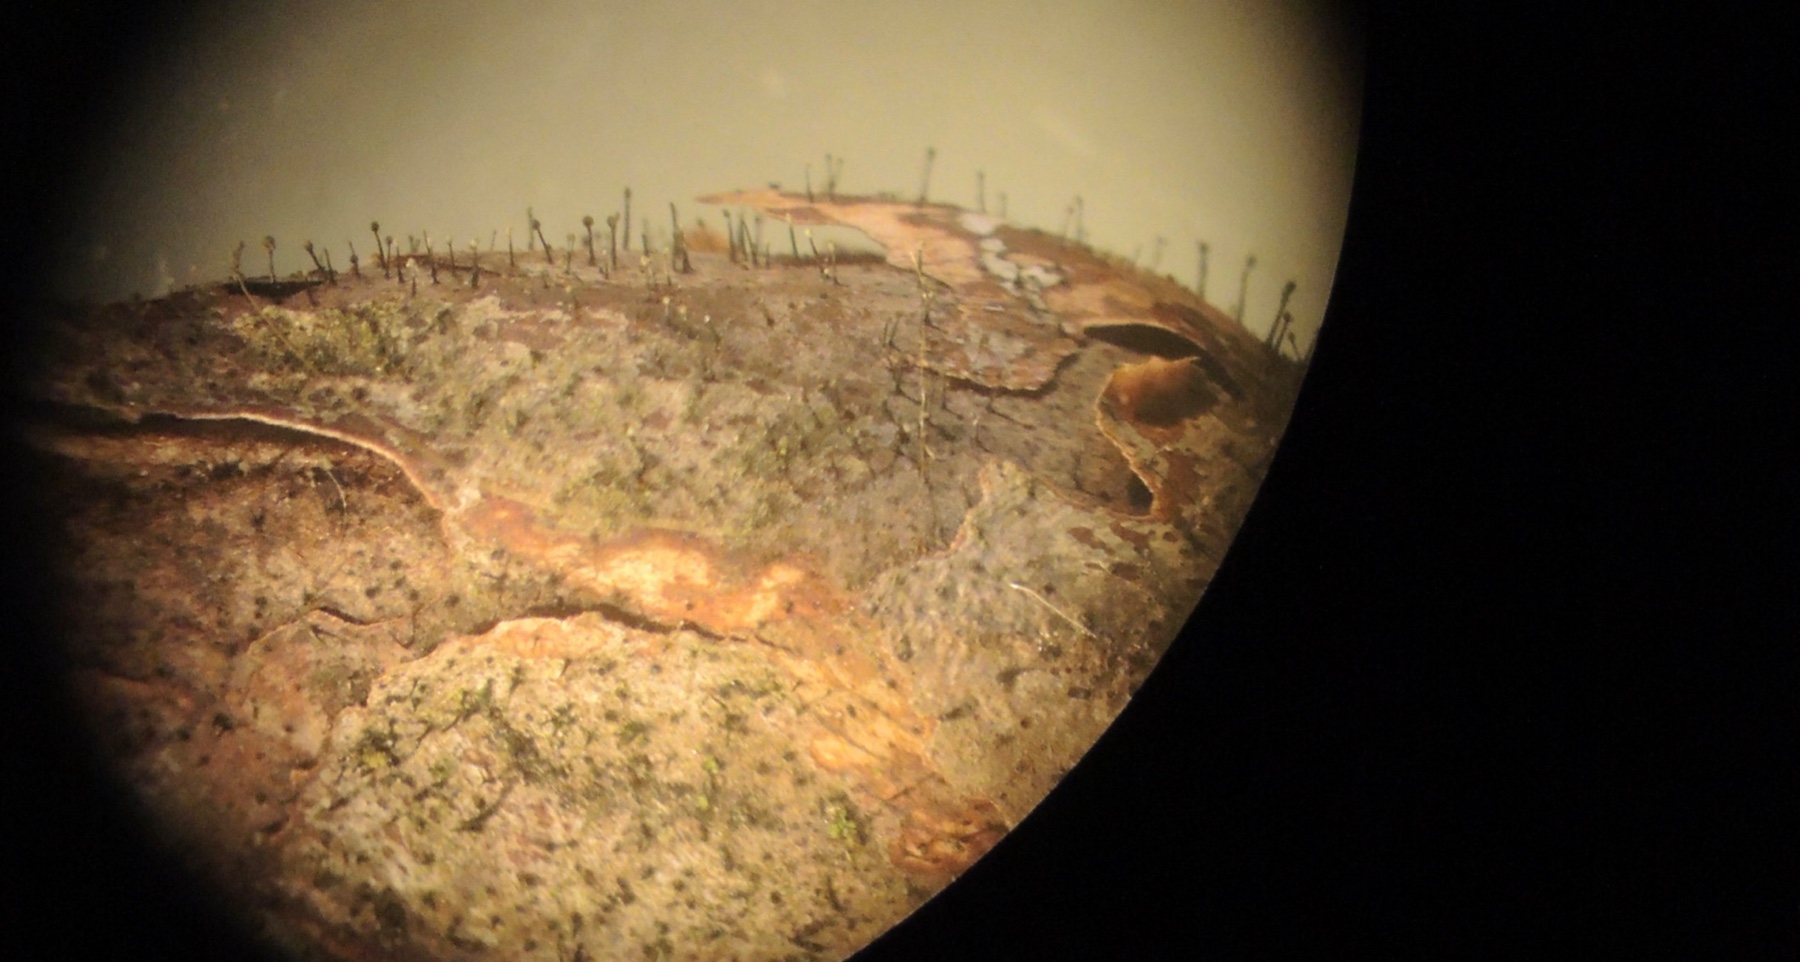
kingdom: Fungi
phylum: Ascomycota
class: Dothideomycetes
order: Pleosporales
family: Melanommataceae
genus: Seifertia
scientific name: Seifertia azaleae
